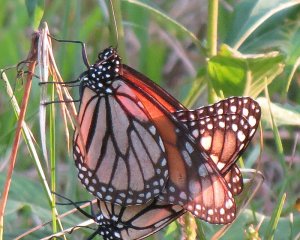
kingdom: Animalia
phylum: Arthropoda
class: Insecta
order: Lepidoptera
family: Nymphalidae
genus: Danaus
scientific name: Danaus plexippus
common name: Monarch
